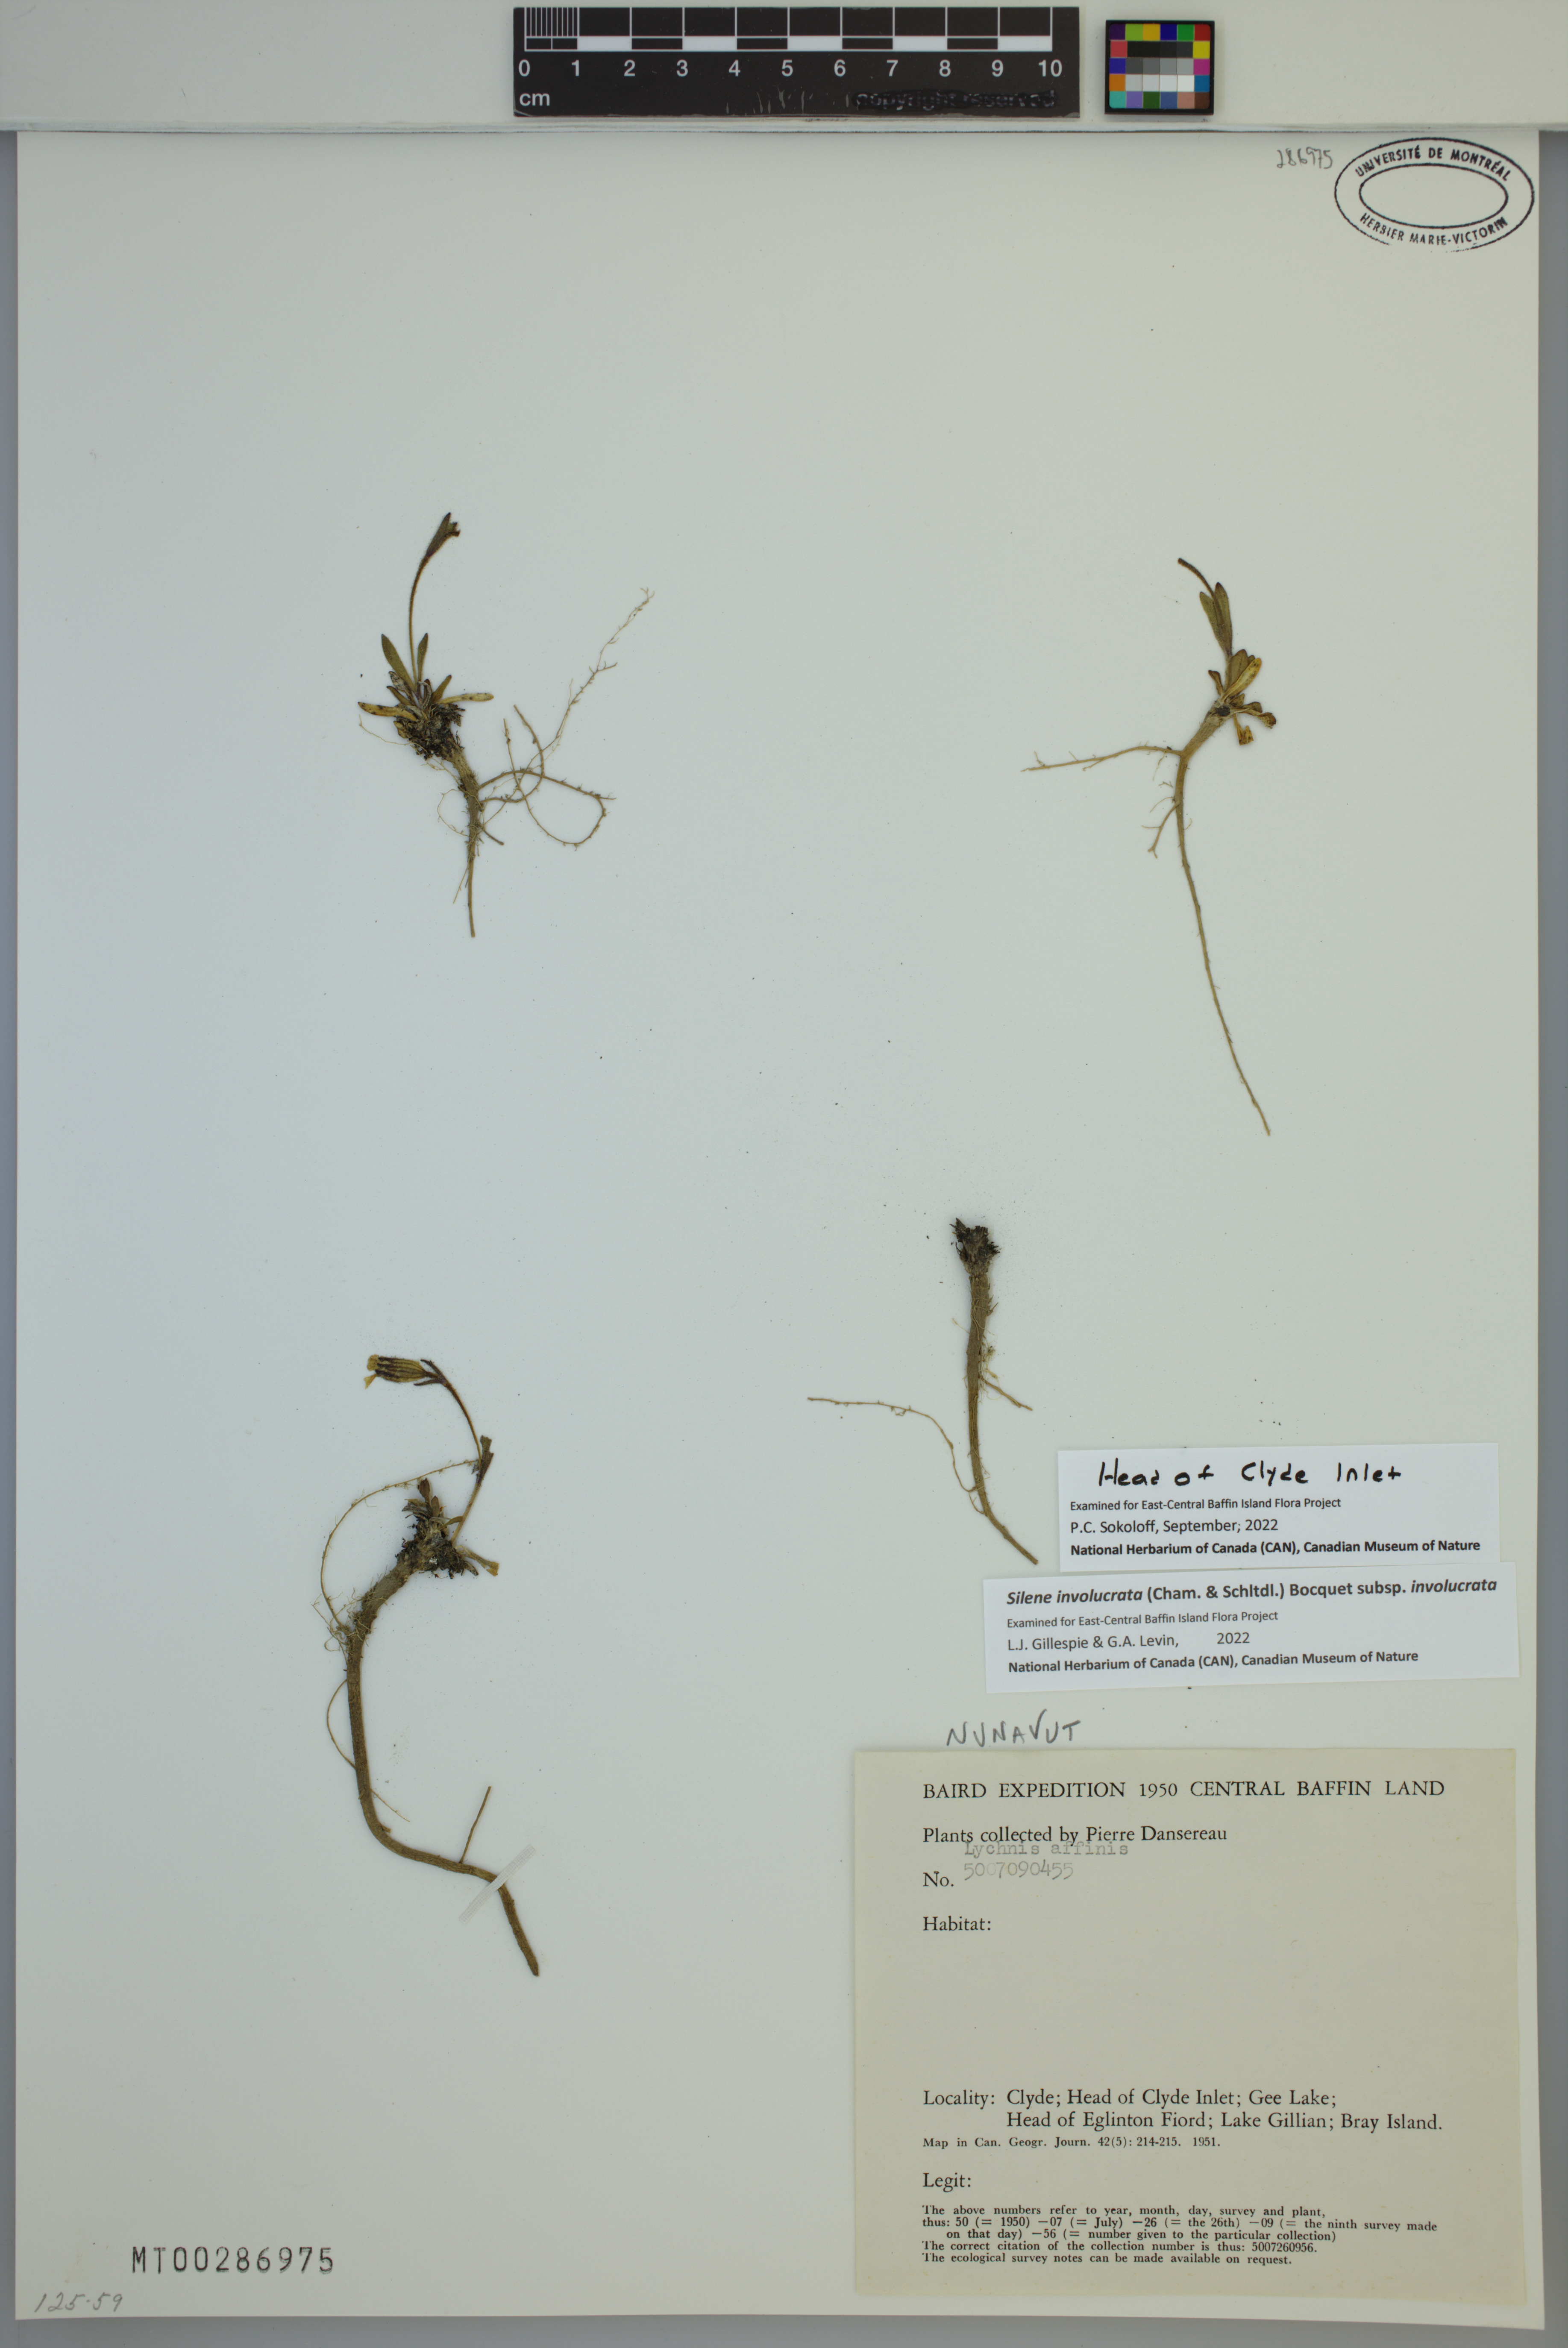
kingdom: Plantae
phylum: Tracheophyta
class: Magnoliopsida
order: Caryophyllales
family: Caryophyllaceae
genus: Silene
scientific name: Silene involucrata
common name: Greater arctic campion
